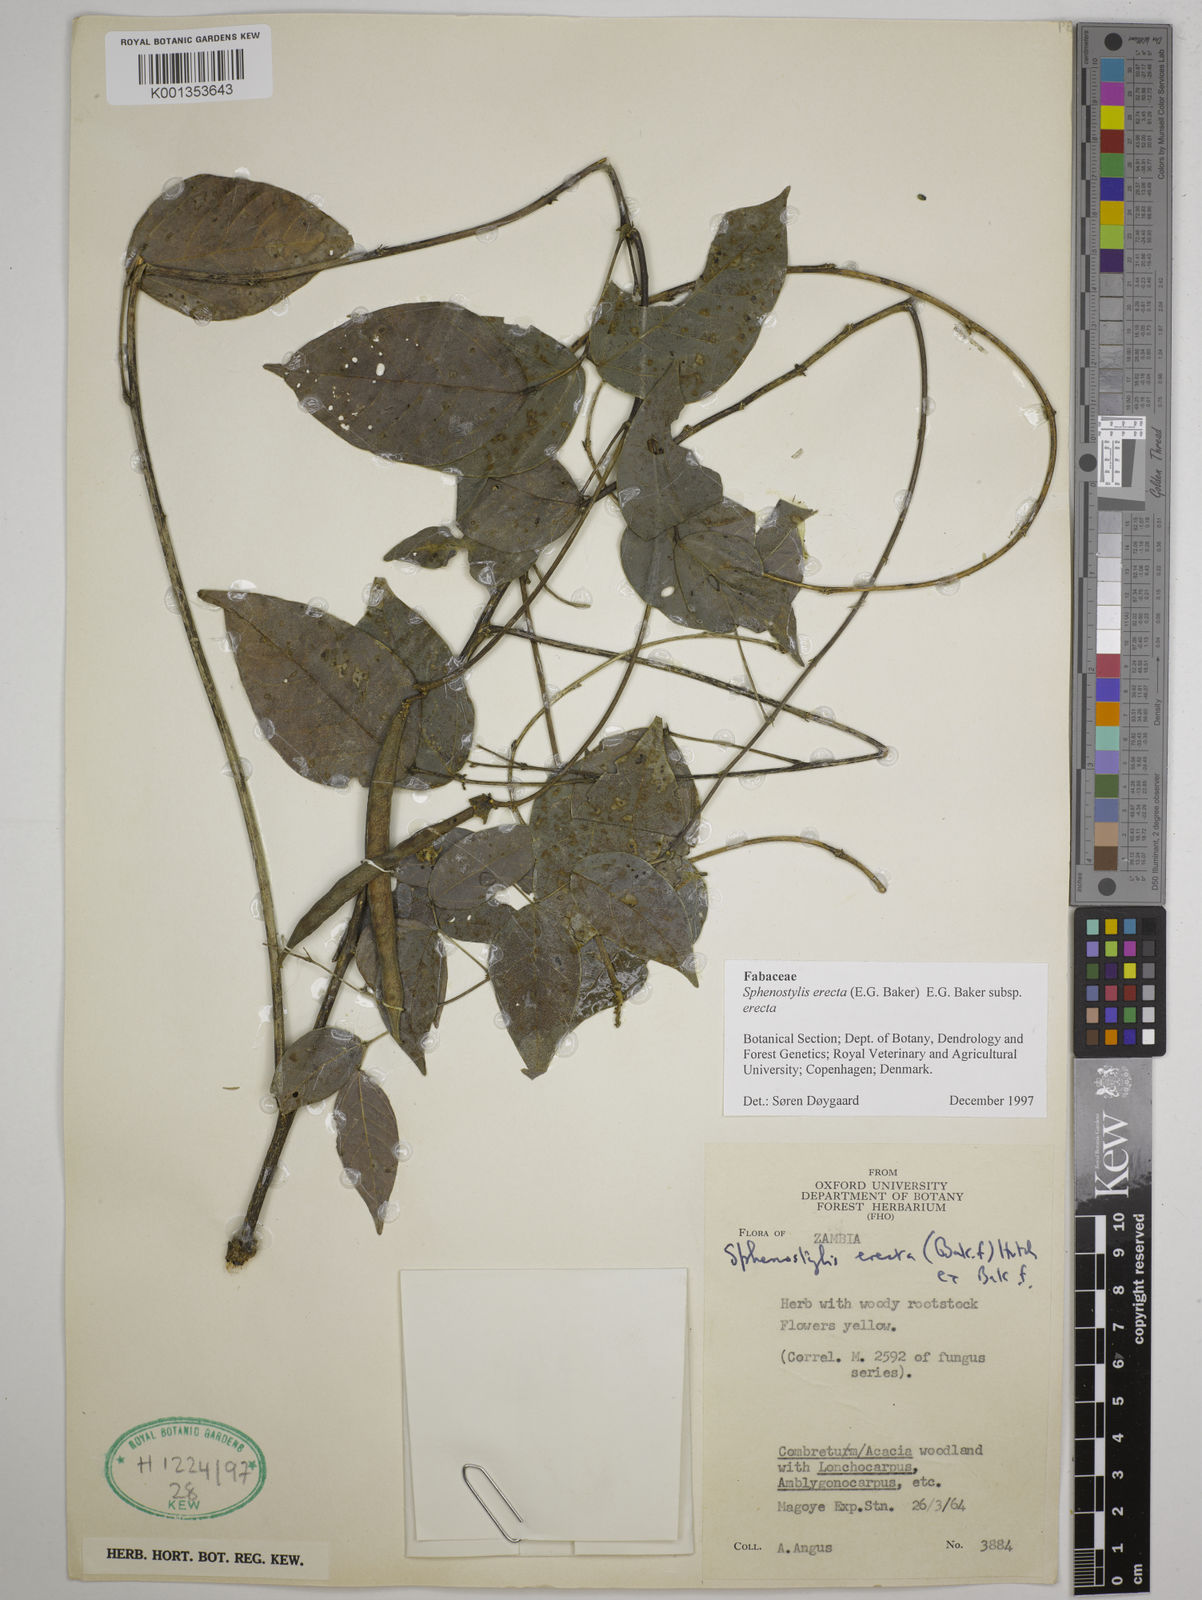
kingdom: Plantae
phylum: Tracheophyta
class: Magnoliopsida
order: Fabales
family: Fabaceae
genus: Sphenostylis
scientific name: Sphenostylis erecta
